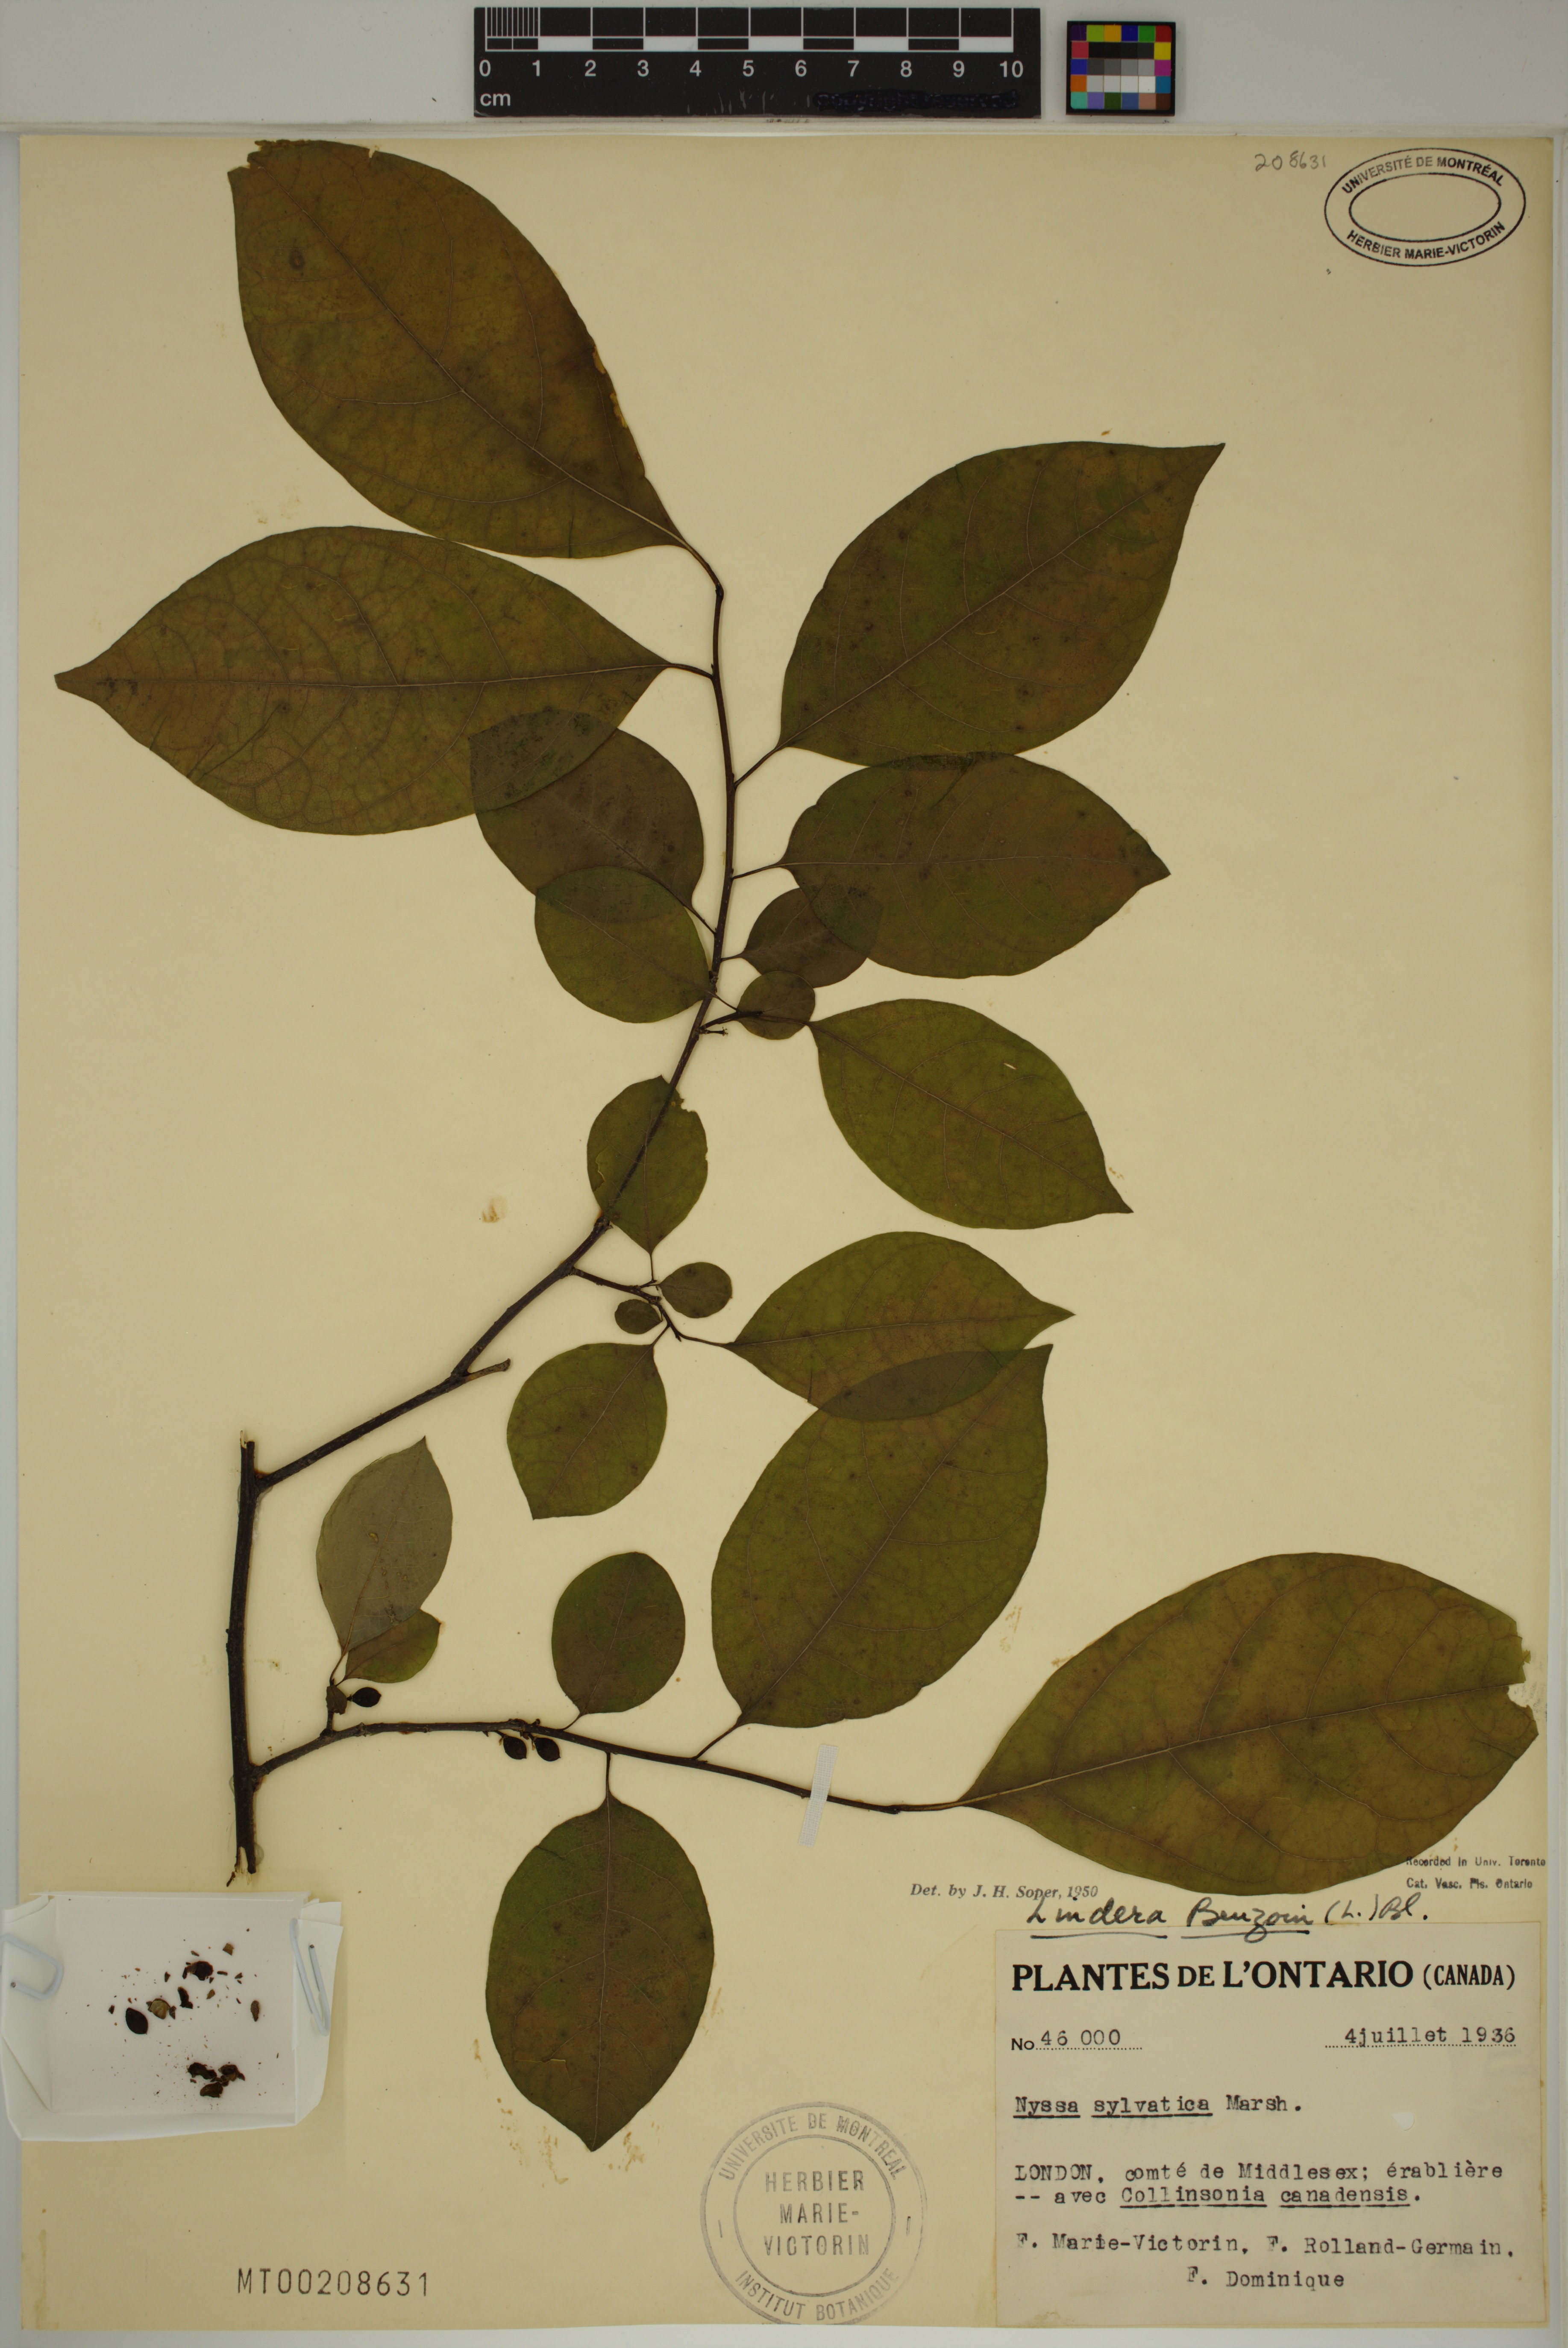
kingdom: Plantae
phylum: Tracheophyta
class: Magnoliopsida
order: Laurales
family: Lauraceae
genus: Lindera
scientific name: Lindera benzoin
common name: Spicebush
